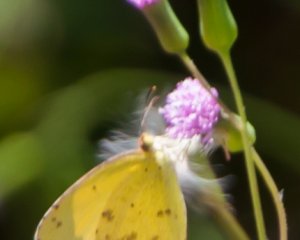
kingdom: Animalia
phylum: Arthropoda
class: Insecta
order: Lepidoptera
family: Pieridae
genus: Pyrisitia
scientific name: Pyrisitia lisa
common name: Little Yellow
